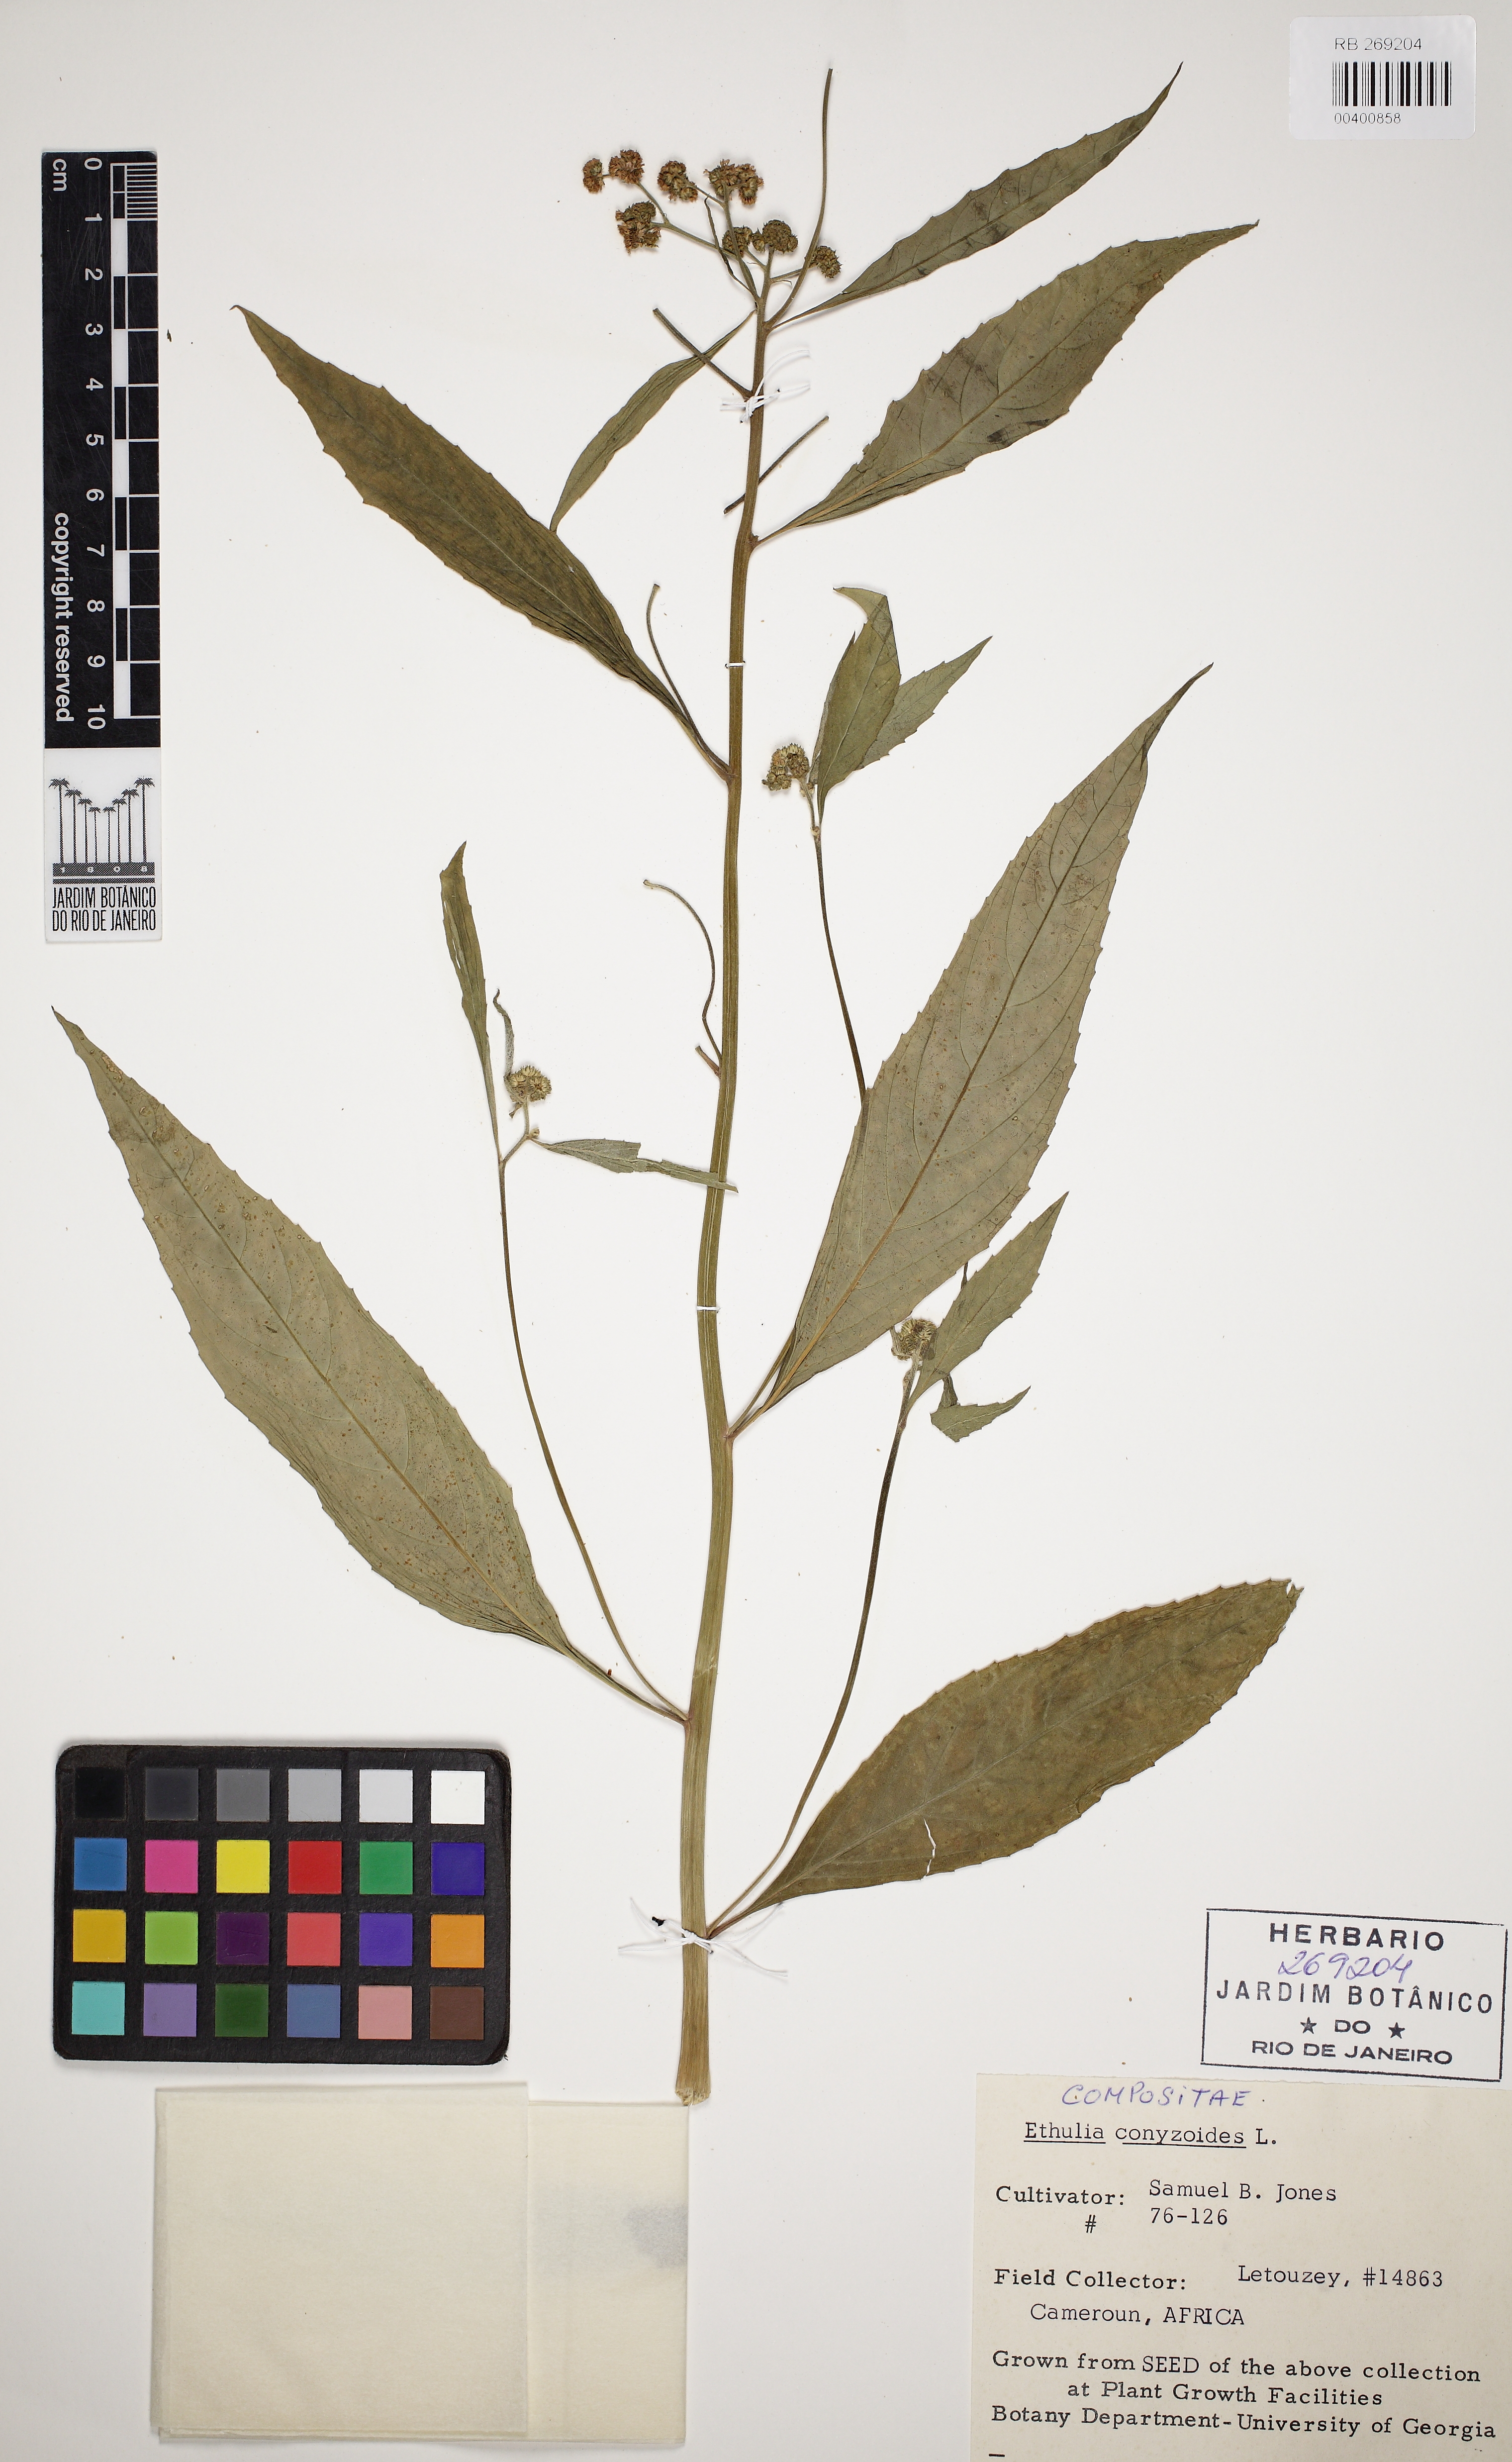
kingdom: Plantae
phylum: Tracheophyta
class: Magnoliopsida
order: Asterales
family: Asteraceae
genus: Ethulia
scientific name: Ethulia conyzoides
